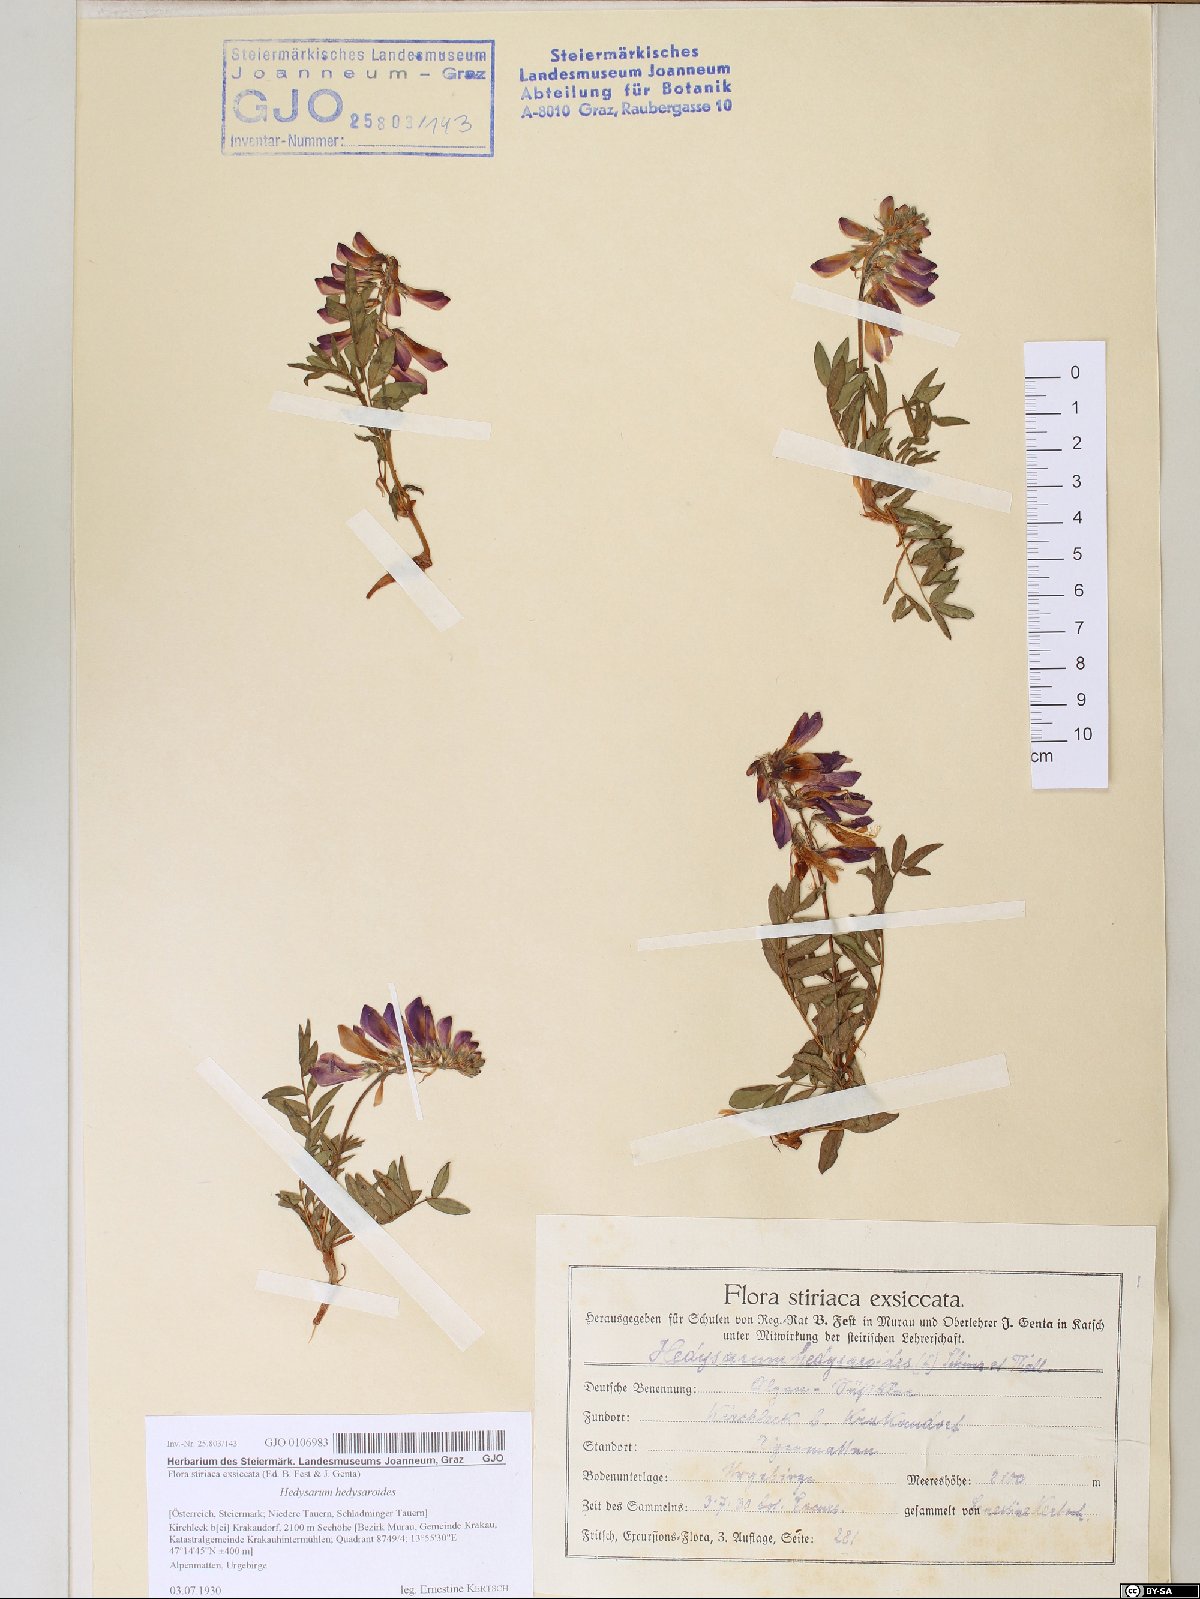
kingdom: Plantae
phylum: Tracheophyta
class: Magnoliopsida
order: Fabales
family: Fabaceae
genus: Hedysarum
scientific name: Hedysarum hedysaroides
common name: Alpine french-honeysuckle
